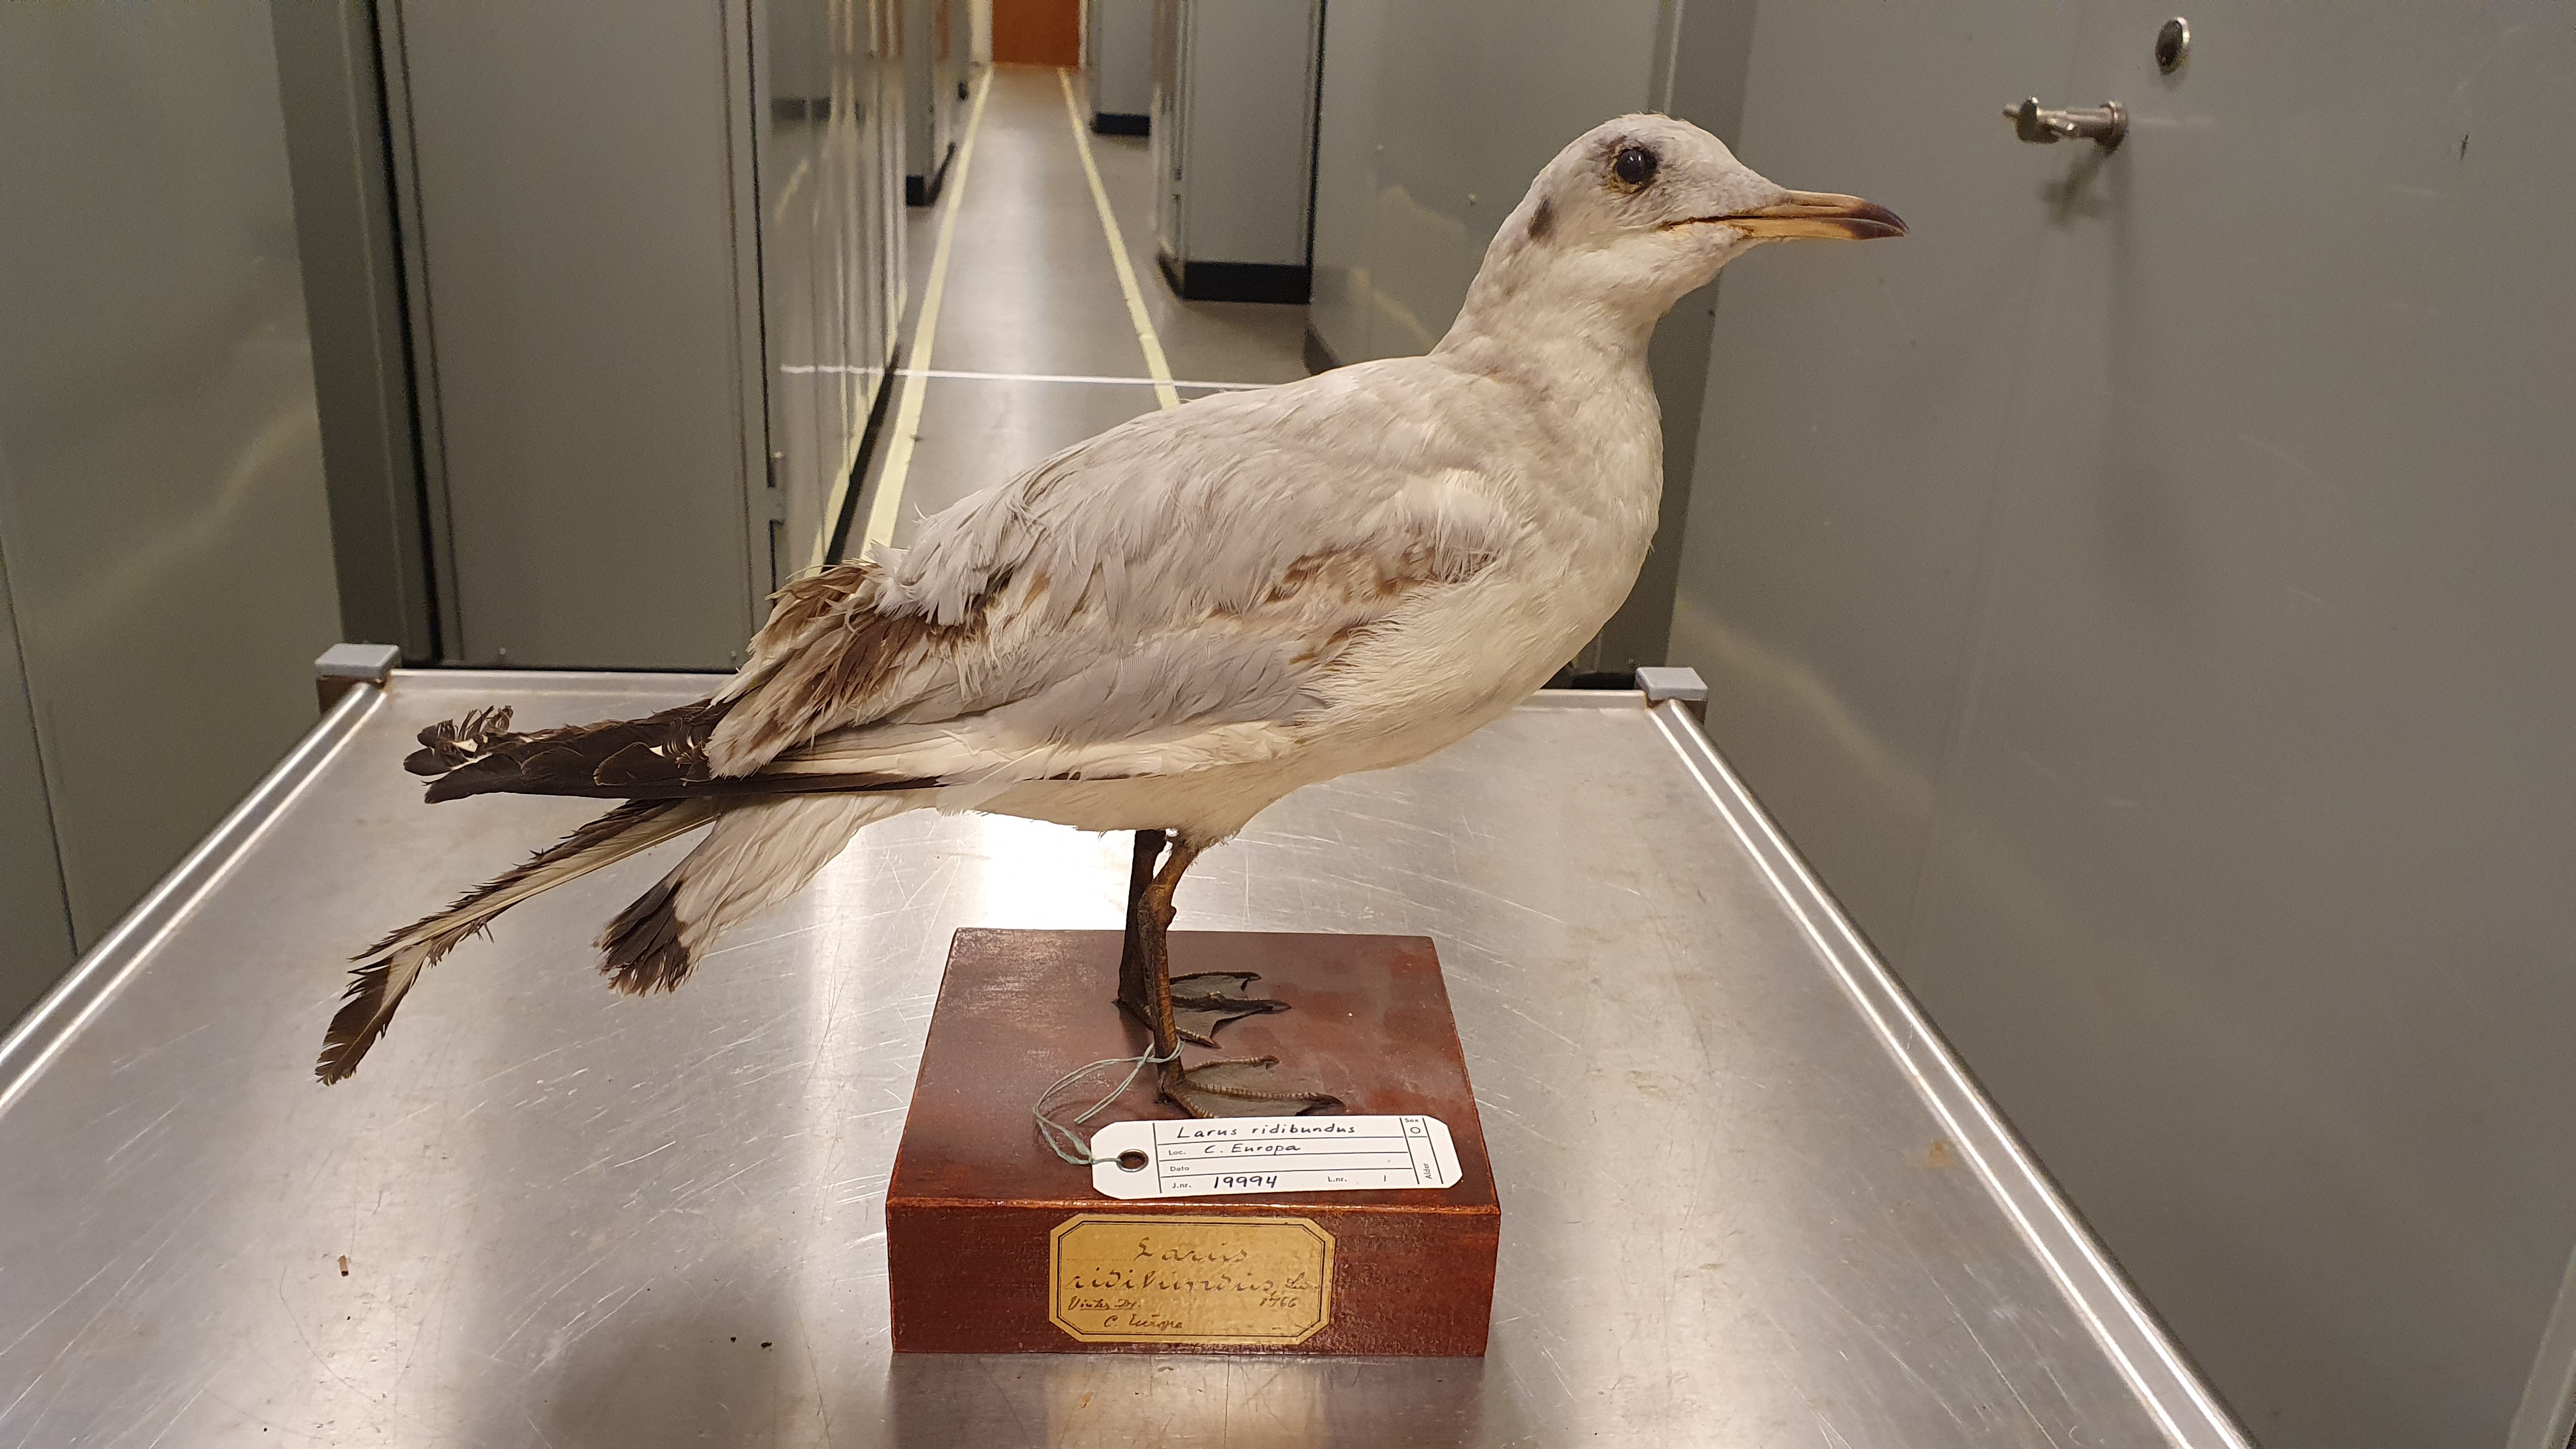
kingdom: Animalia
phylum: Chordata
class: Aves
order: Charadriiformes
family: Laridae
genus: Chroicocephalus
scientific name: Chroicocephalus ridibundus
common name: Black-headed gull
